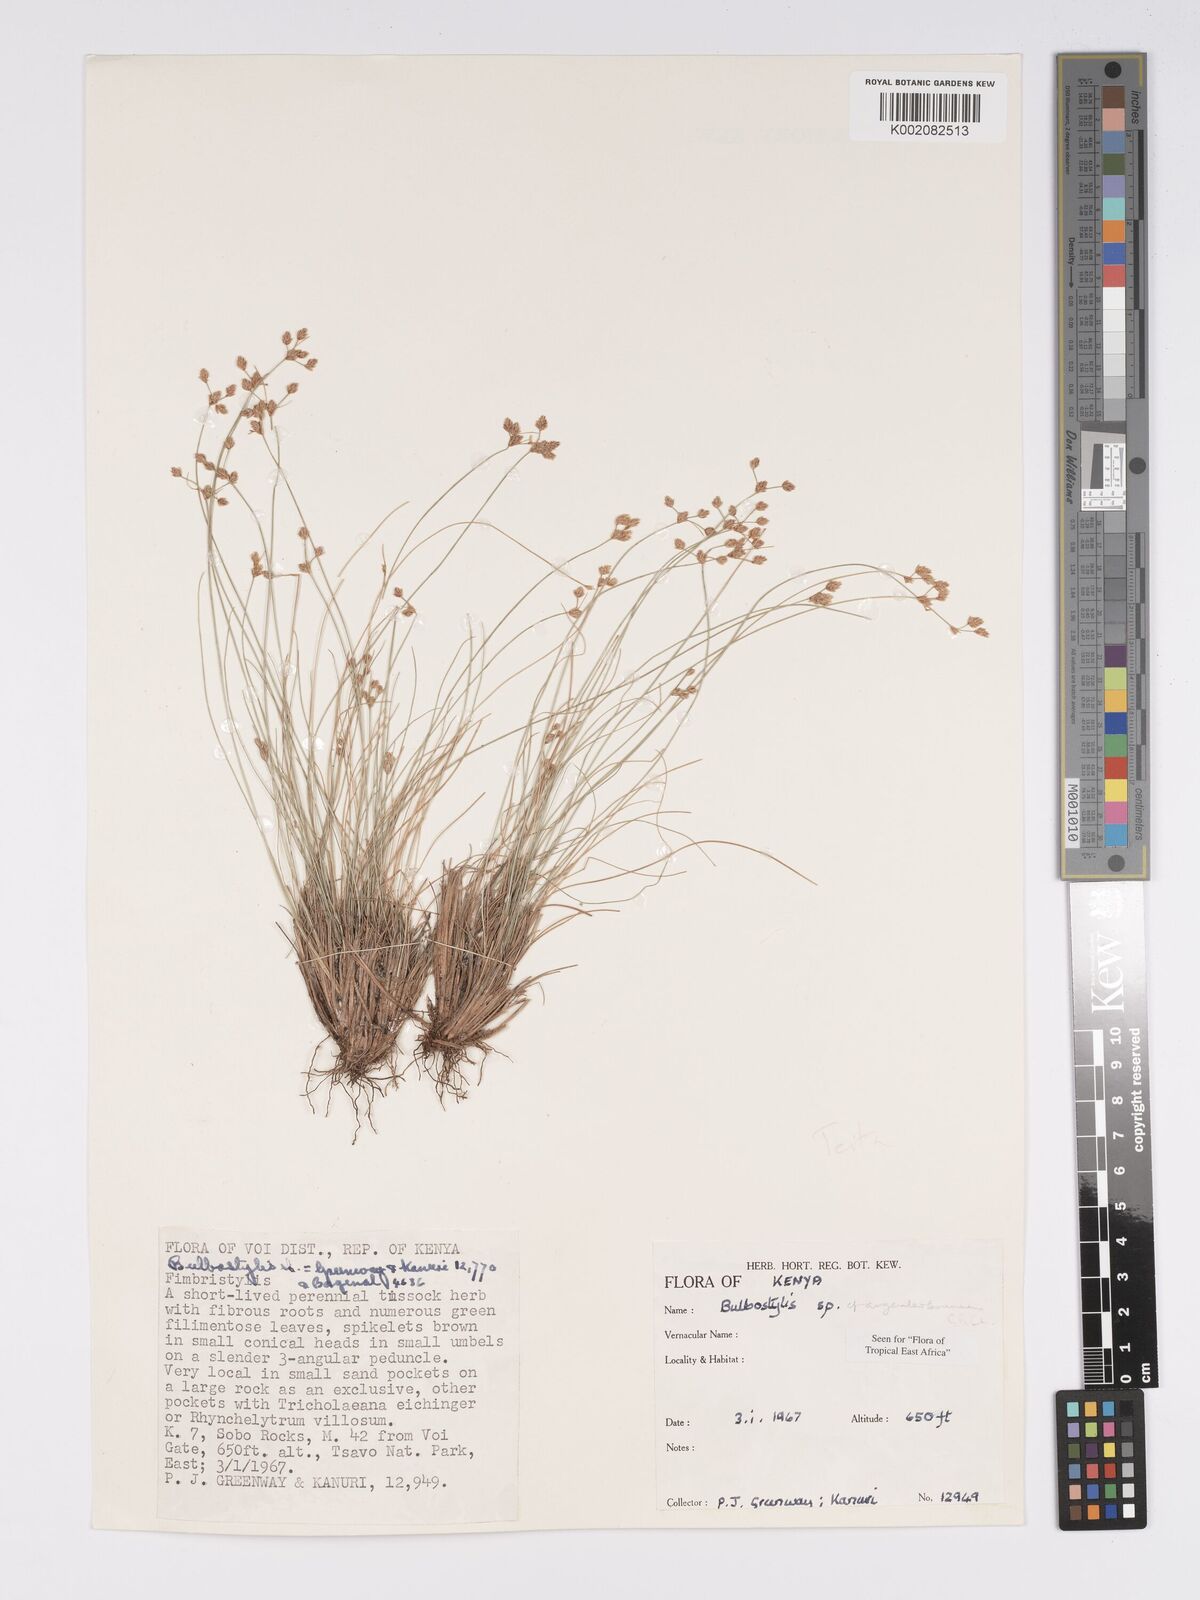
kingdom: Plantae
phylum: Tracheophyta
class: Liliopsida
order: Poales
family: Cyperaceae
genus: Bulbostylis
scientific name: Bulbostylis argenteobrunea
